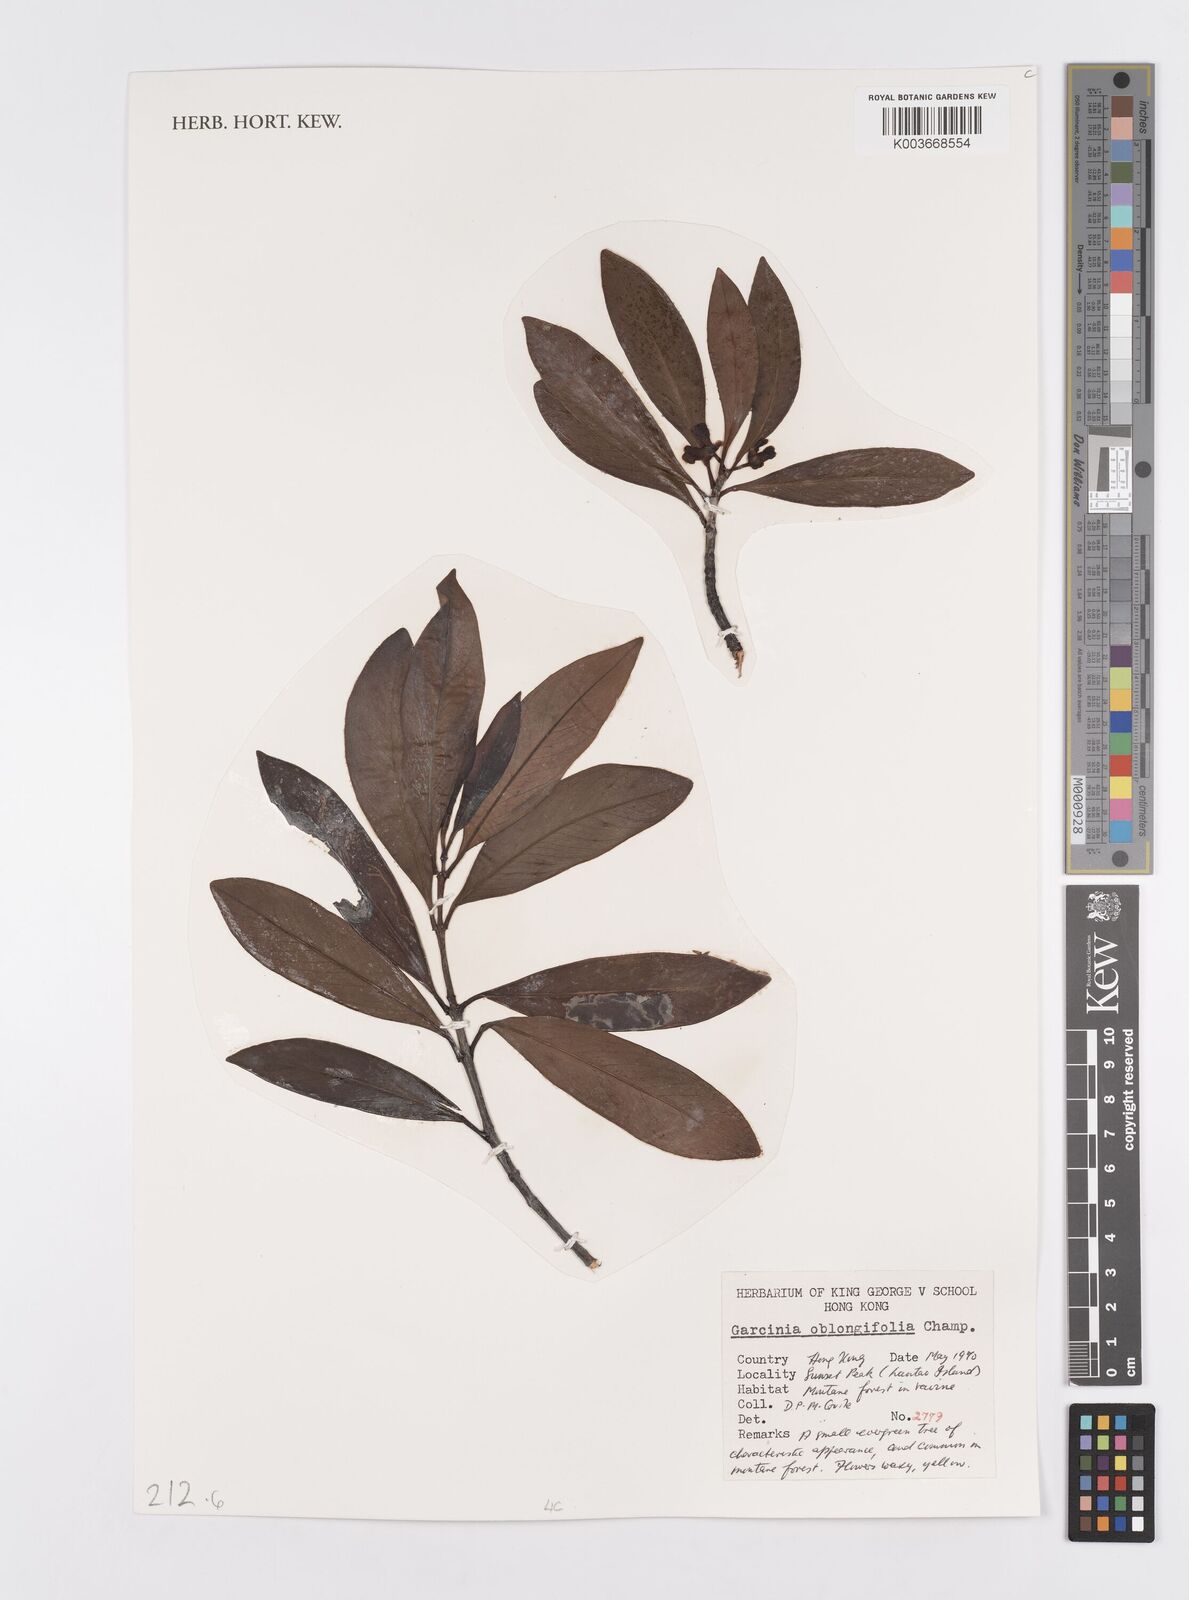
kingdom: Plantae
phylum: Tracheophyta
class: Magnoliopsida
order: Malpighiales
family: Clusiaceae
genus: Garcinia
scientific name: Garcinia oblongifolia
